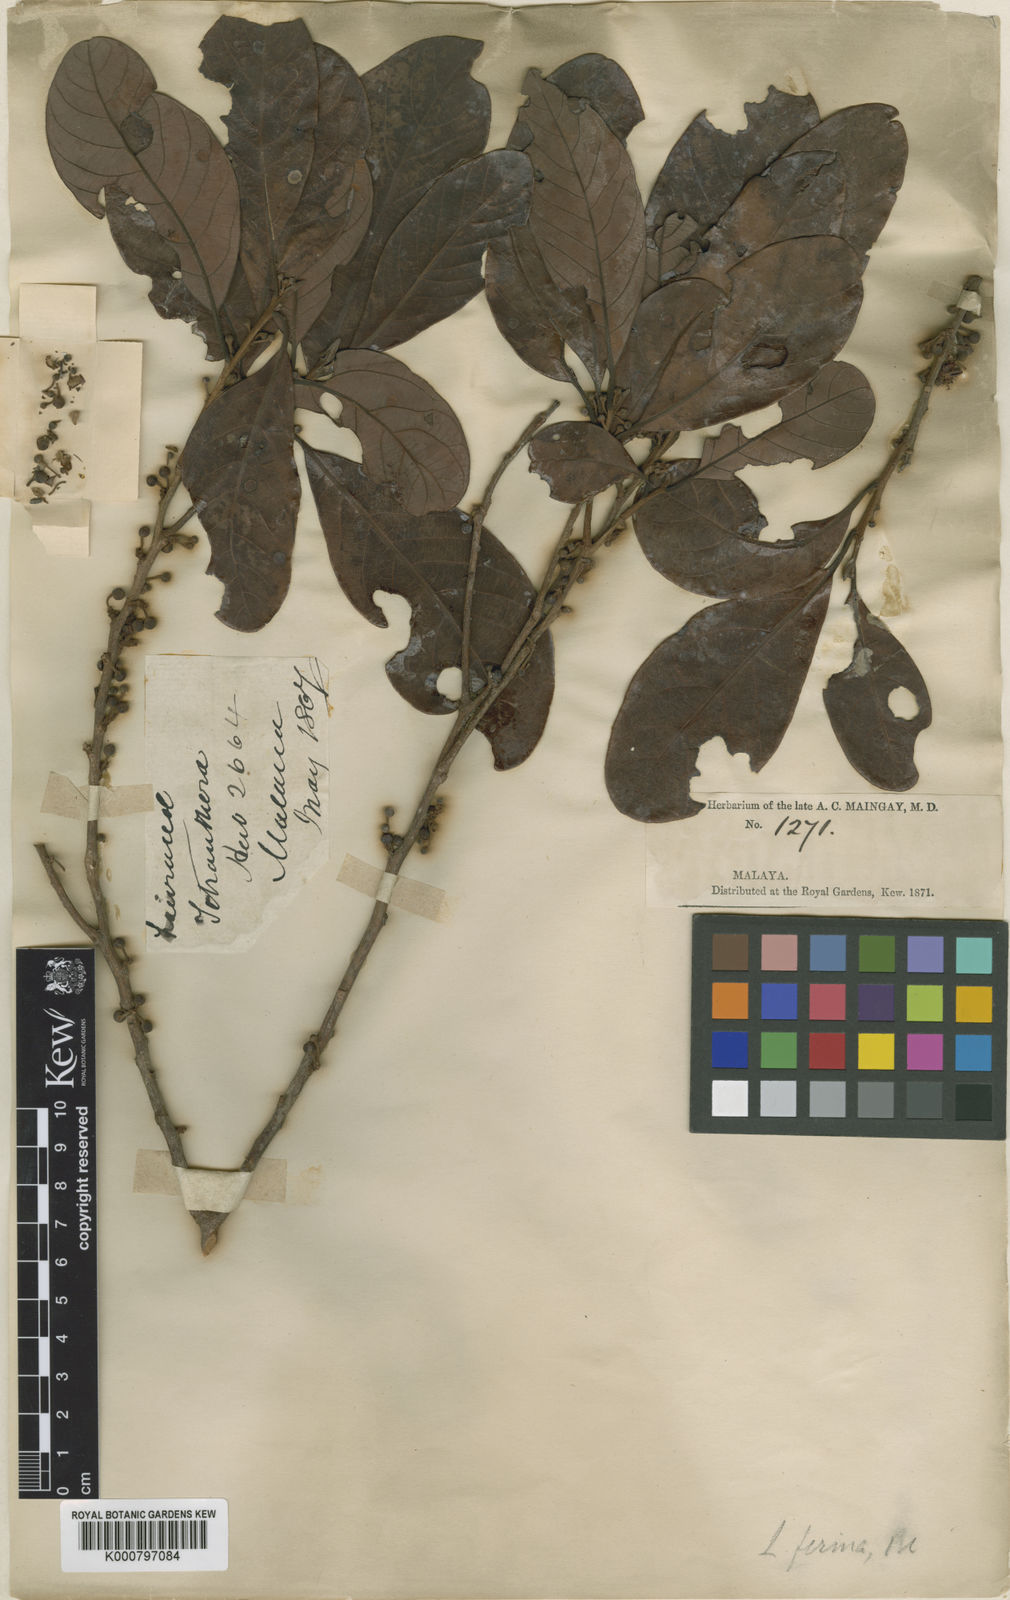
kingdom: Plantae
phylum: Tracheophyta
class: Magnoliopsida
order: Laurales
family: Lauraceae
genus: Litsea
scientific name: Litsea firma
